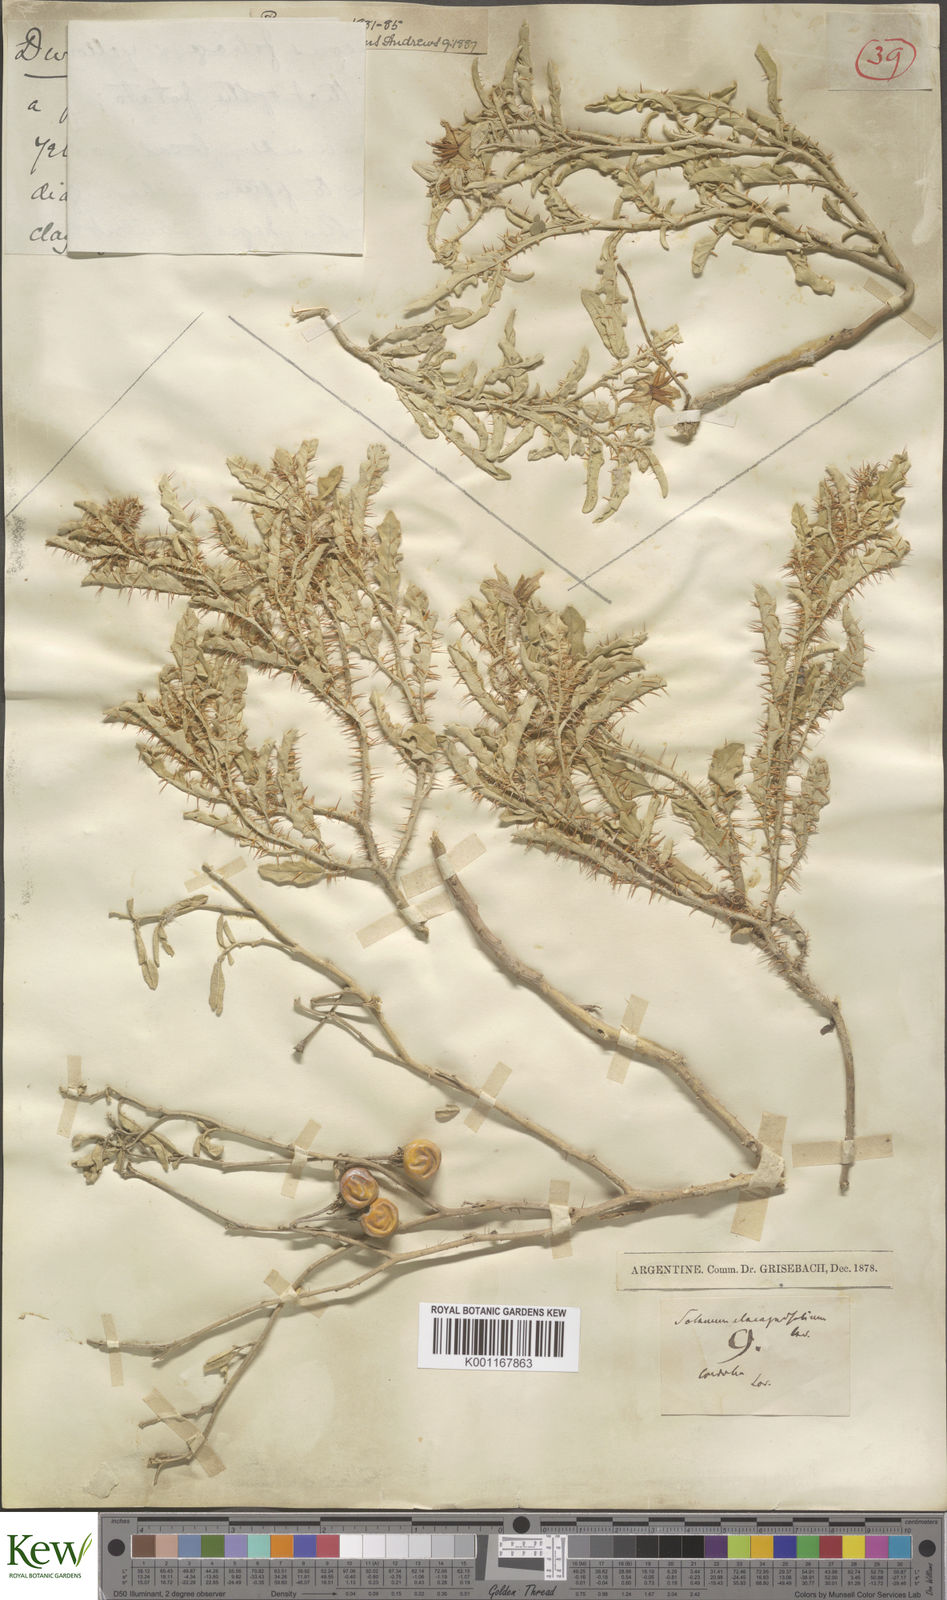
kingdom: Plantae
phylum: Tracheophyta
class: Magnoliopsida
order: Solanales
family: Solanaceae
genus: Solanum
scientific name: Solanum elaeagnifolium
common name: Silverleaf nightshade
